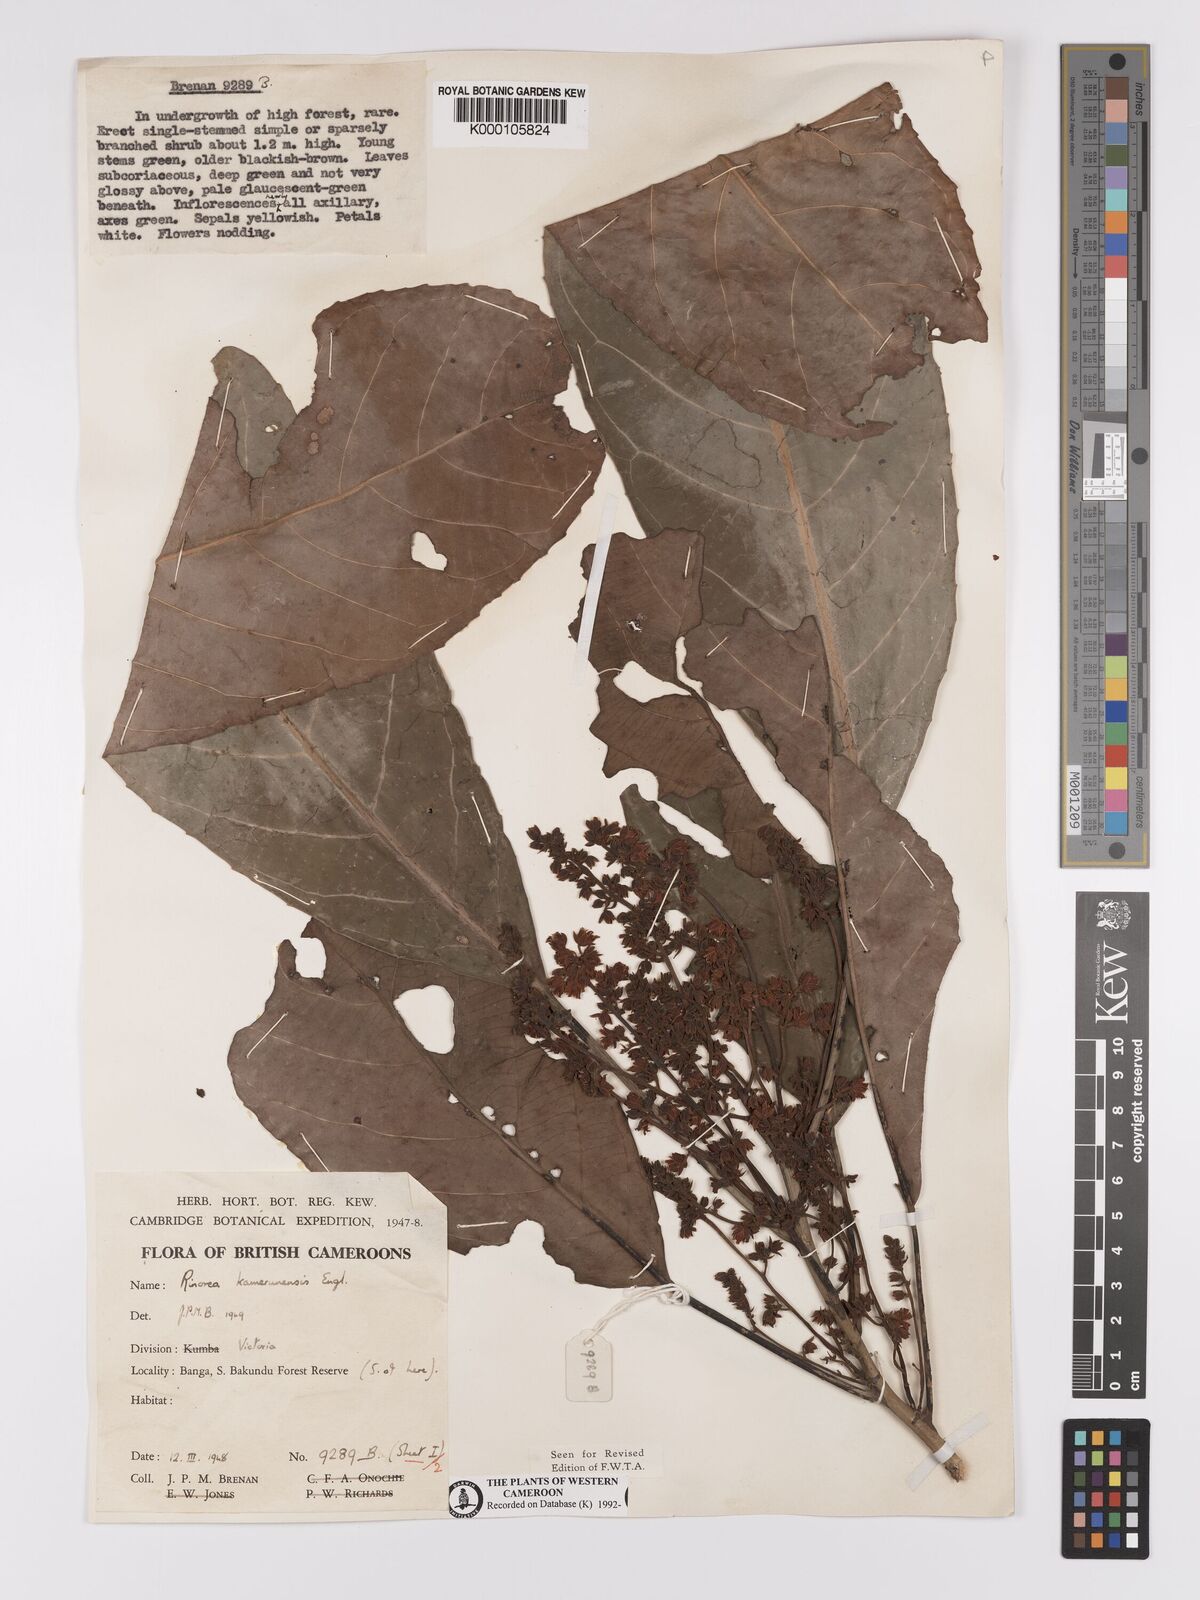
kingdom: Plantae
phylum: Tracheophyta
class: Magnoliopsida
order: Malpighiales
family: Violaceae
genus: Rinorea
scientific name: Rinorea kamerunensis
